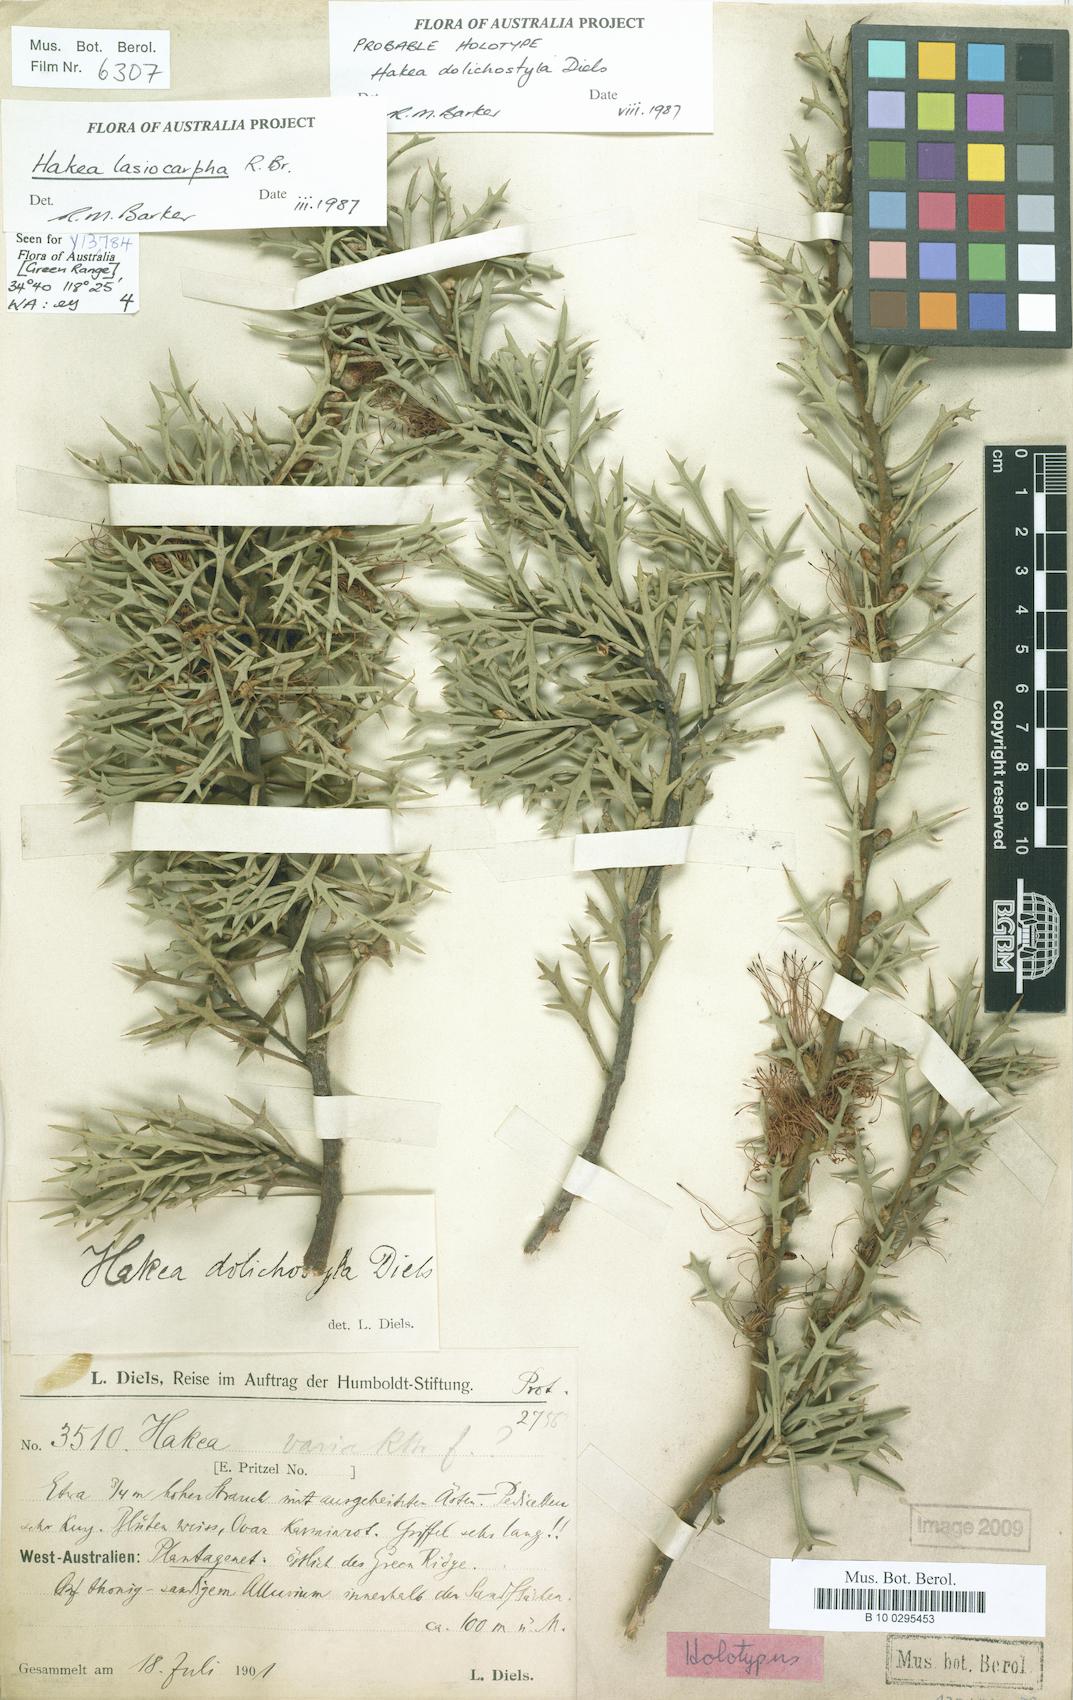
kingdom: Plantae
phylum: Tracheophyta
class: Magnoliopsida
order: Proteales
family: Proteaceae
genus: Hakea
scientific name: Hakea lasiocarpha
